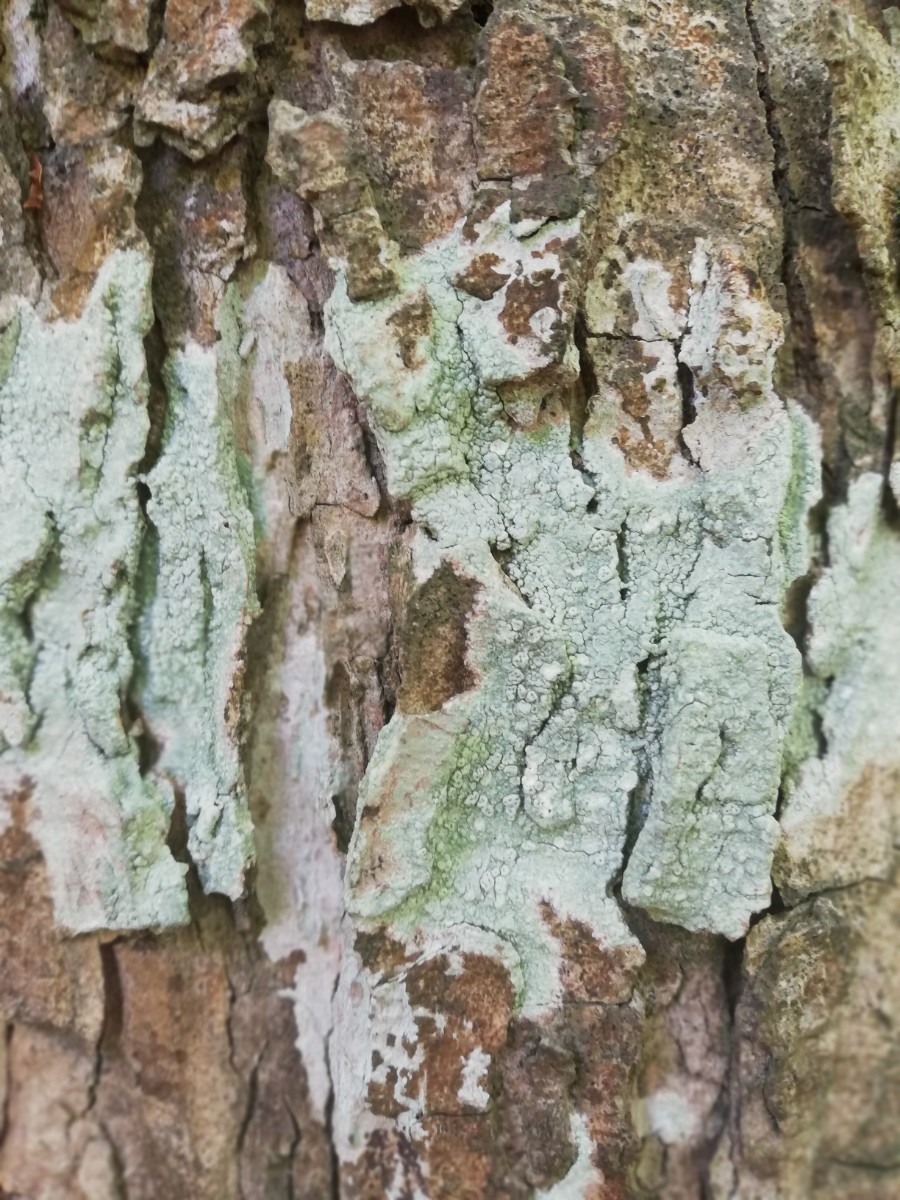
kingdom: Fungi
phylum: Ascomycota
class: Lecanoromycetes
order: Pertusariales
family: Pertusariaceae
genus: Pertusaria
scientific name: Pertusaria pertusa
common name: almindelig prikvortelav
